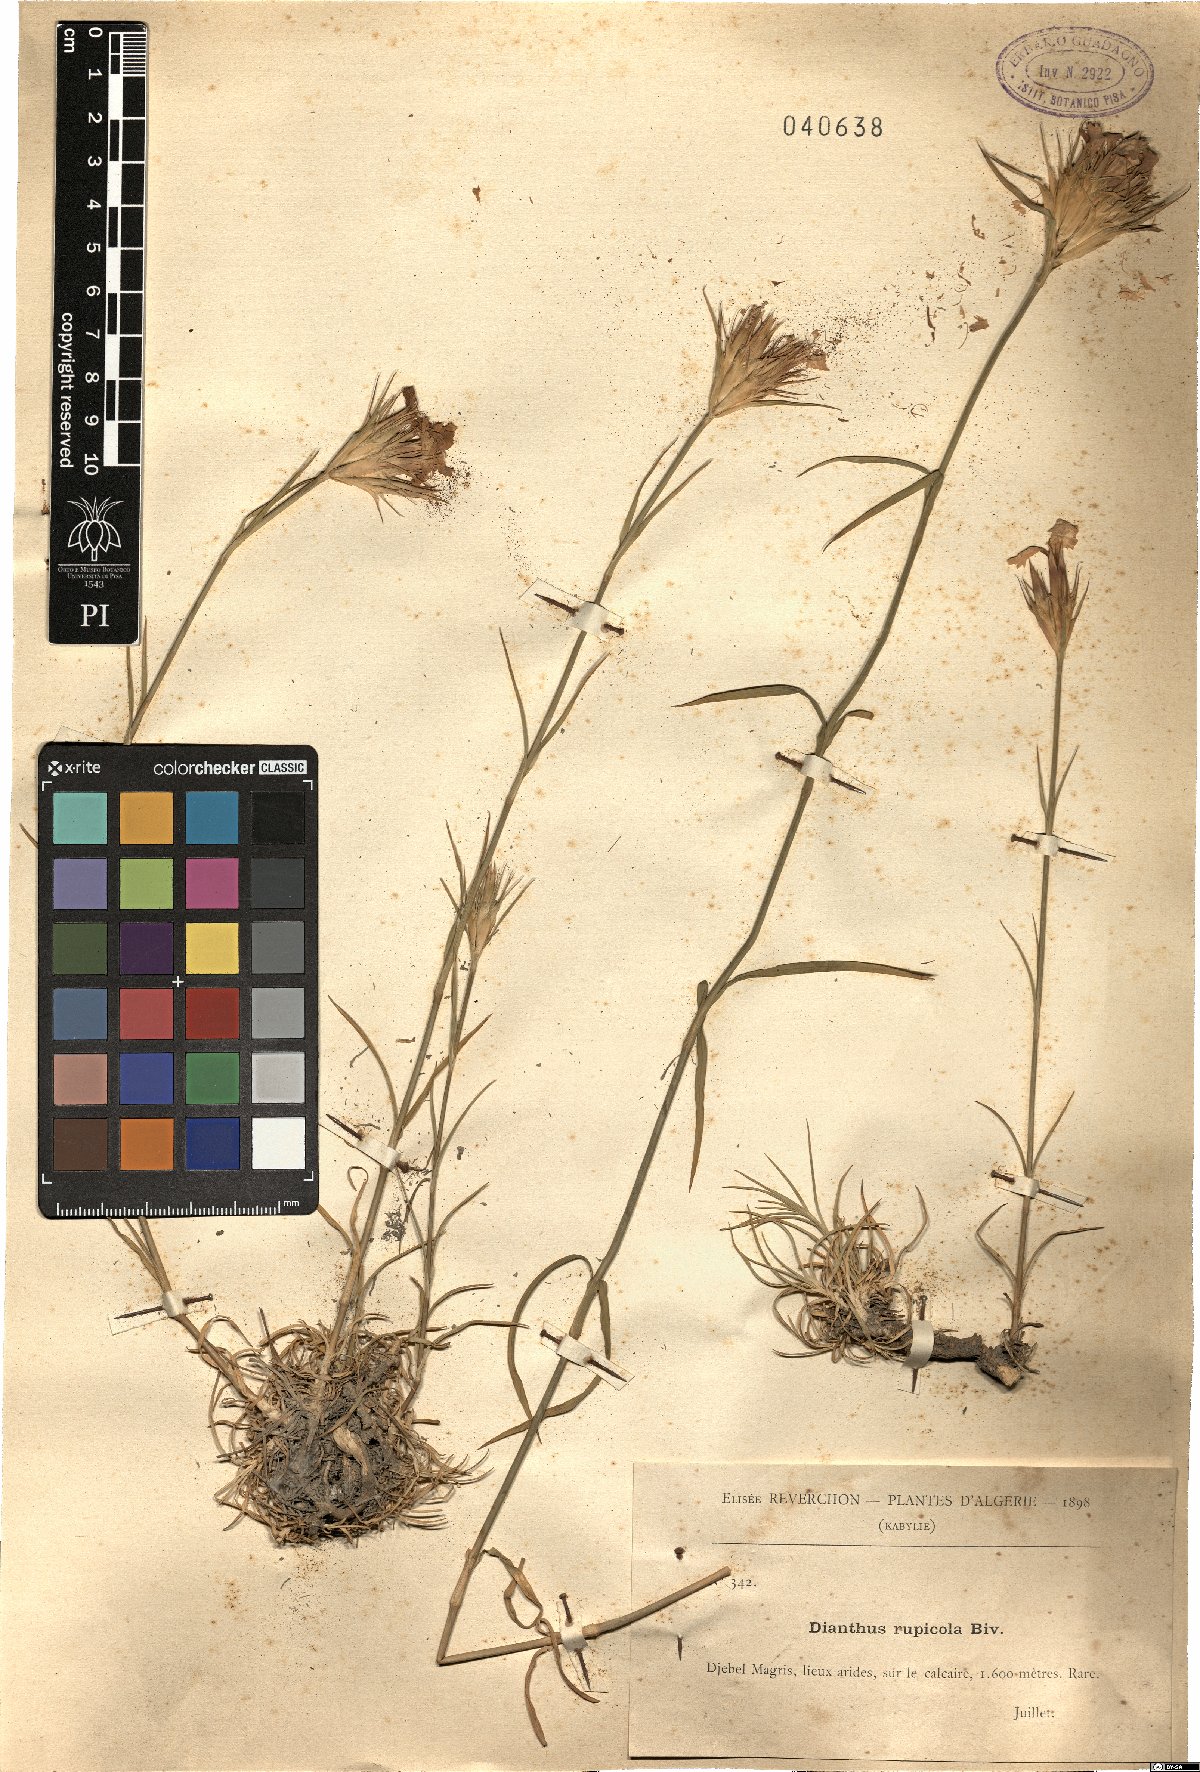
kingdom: Plantae
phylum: Tracheophyta
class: Magnoliopsida
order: Caryophyllales
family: Caryophyllaceae
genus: Dianthus
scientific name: Dianthus rupicola
